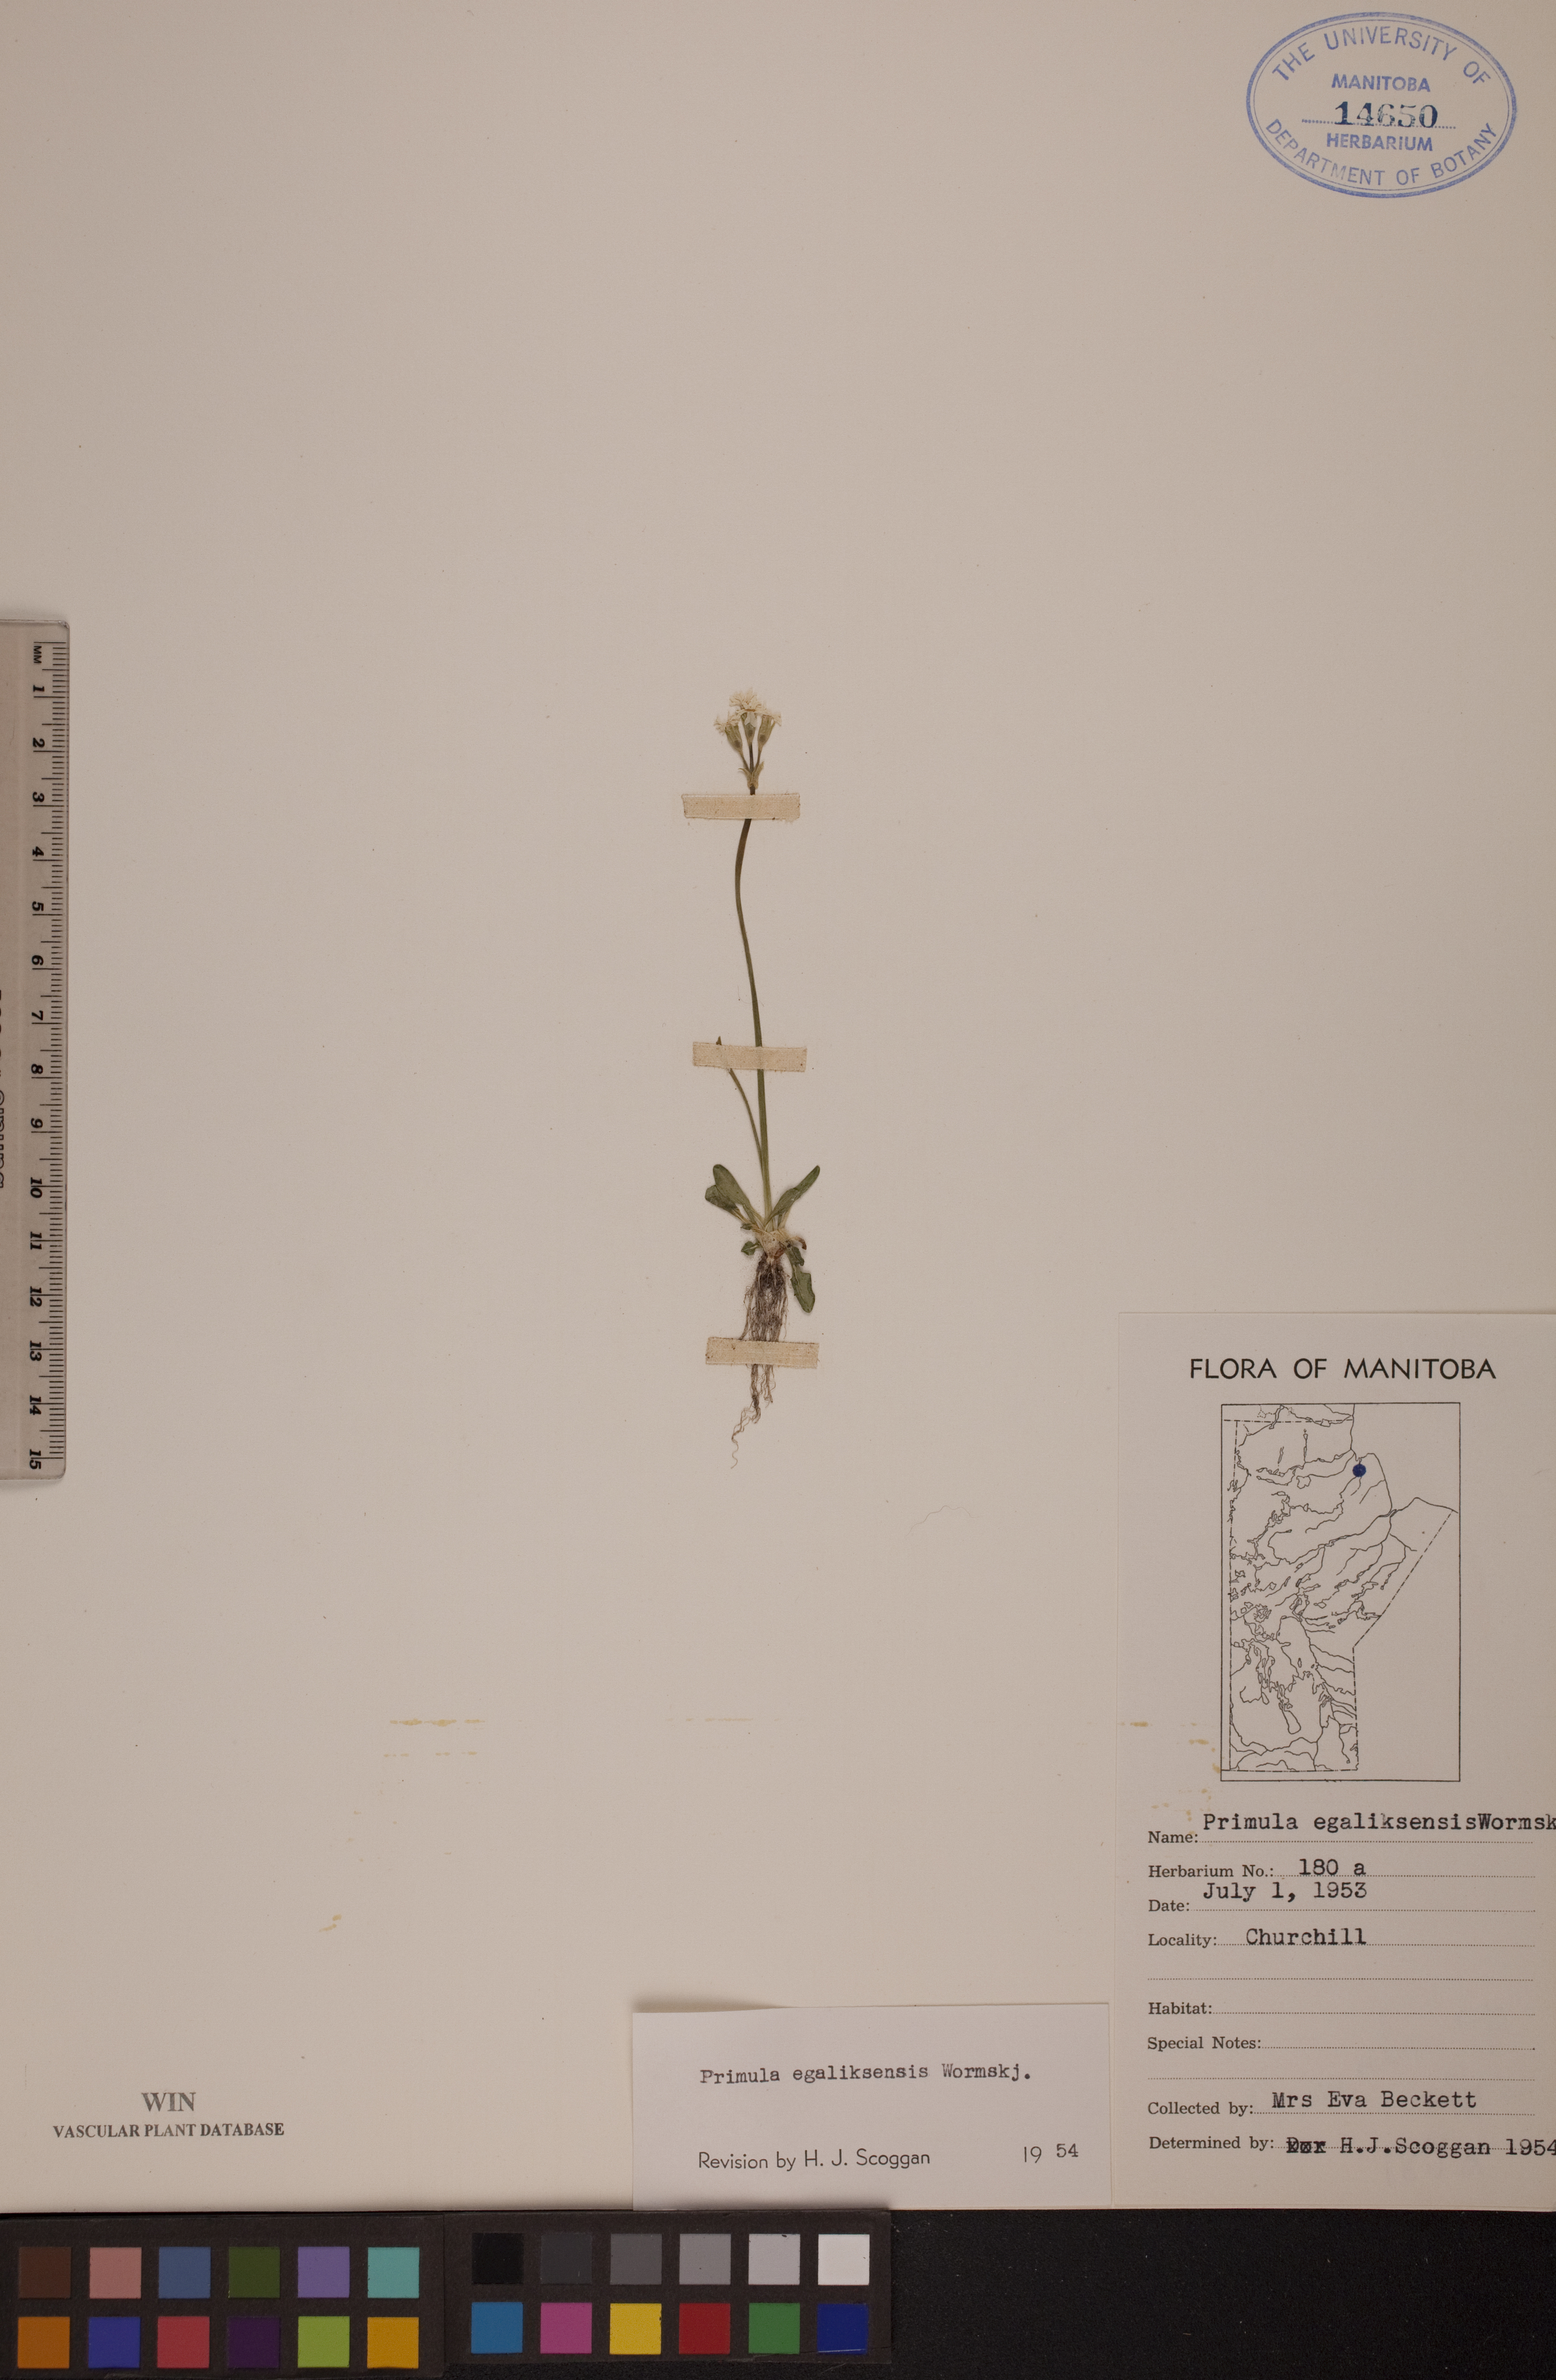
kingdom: Plantae
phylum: Tracheophyta
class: Magnoliopsida
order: Ericales
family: Primulaceae
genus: Primula
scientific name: Primula egaliksensis
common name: Greenland primrose
